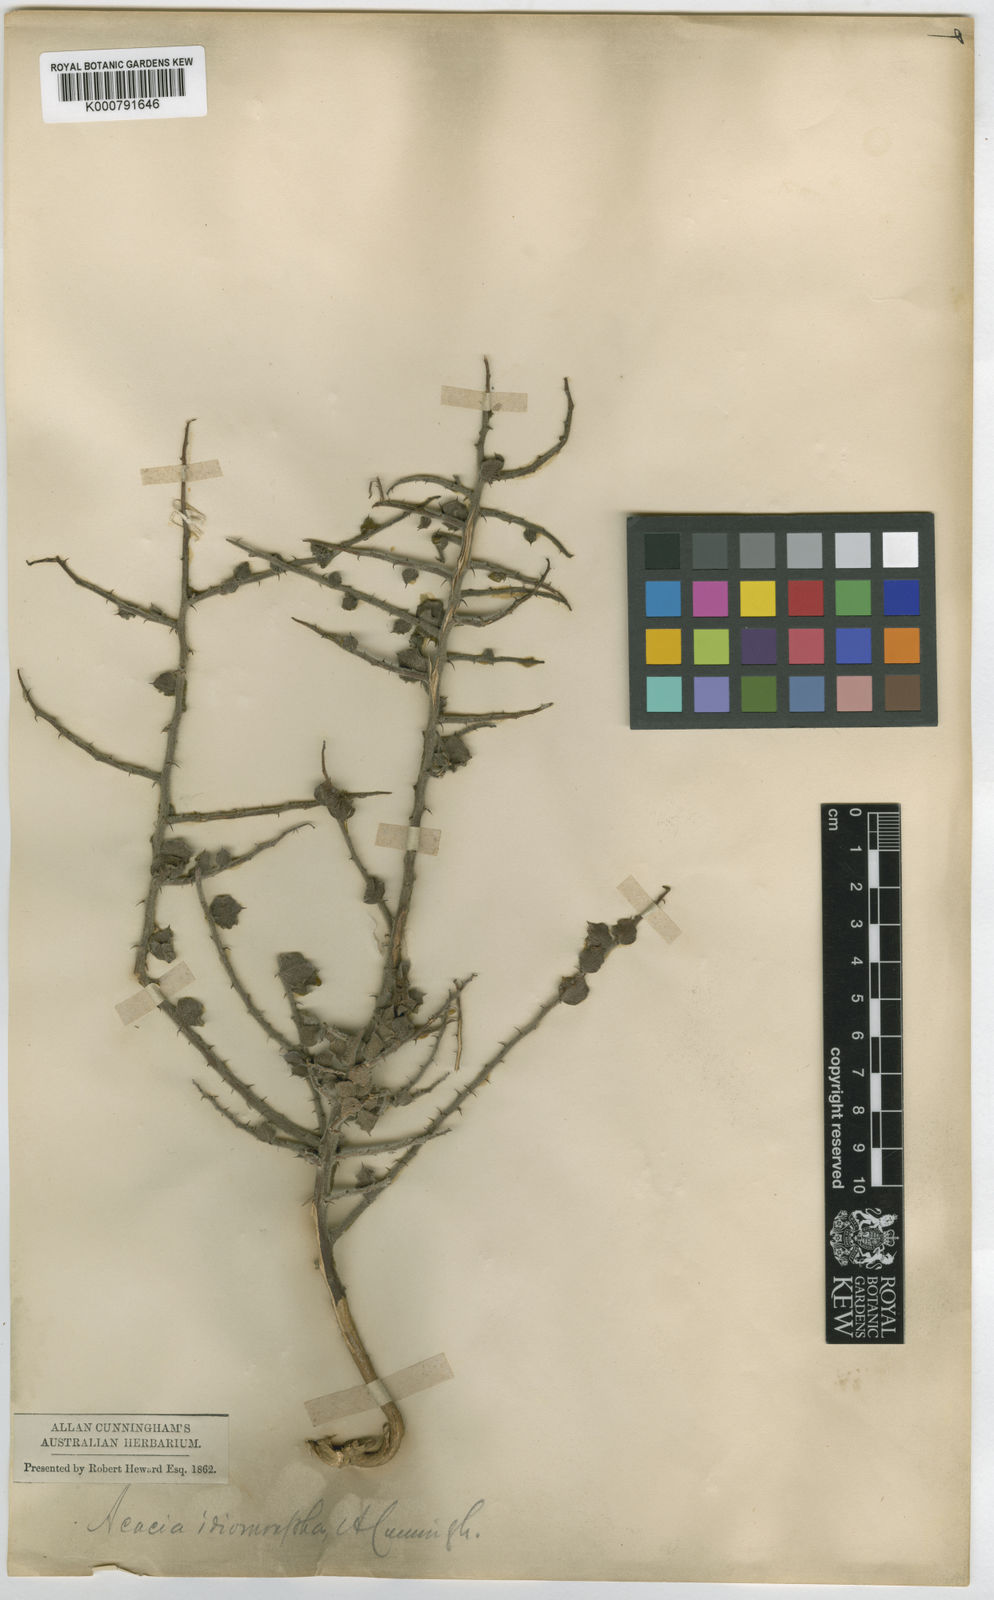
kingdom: Plantae
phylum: Tracheophyta
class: Magnoliopsida
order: Fabales
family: Fabaceae
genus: Acacia
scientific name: Acacia idiomorpha
